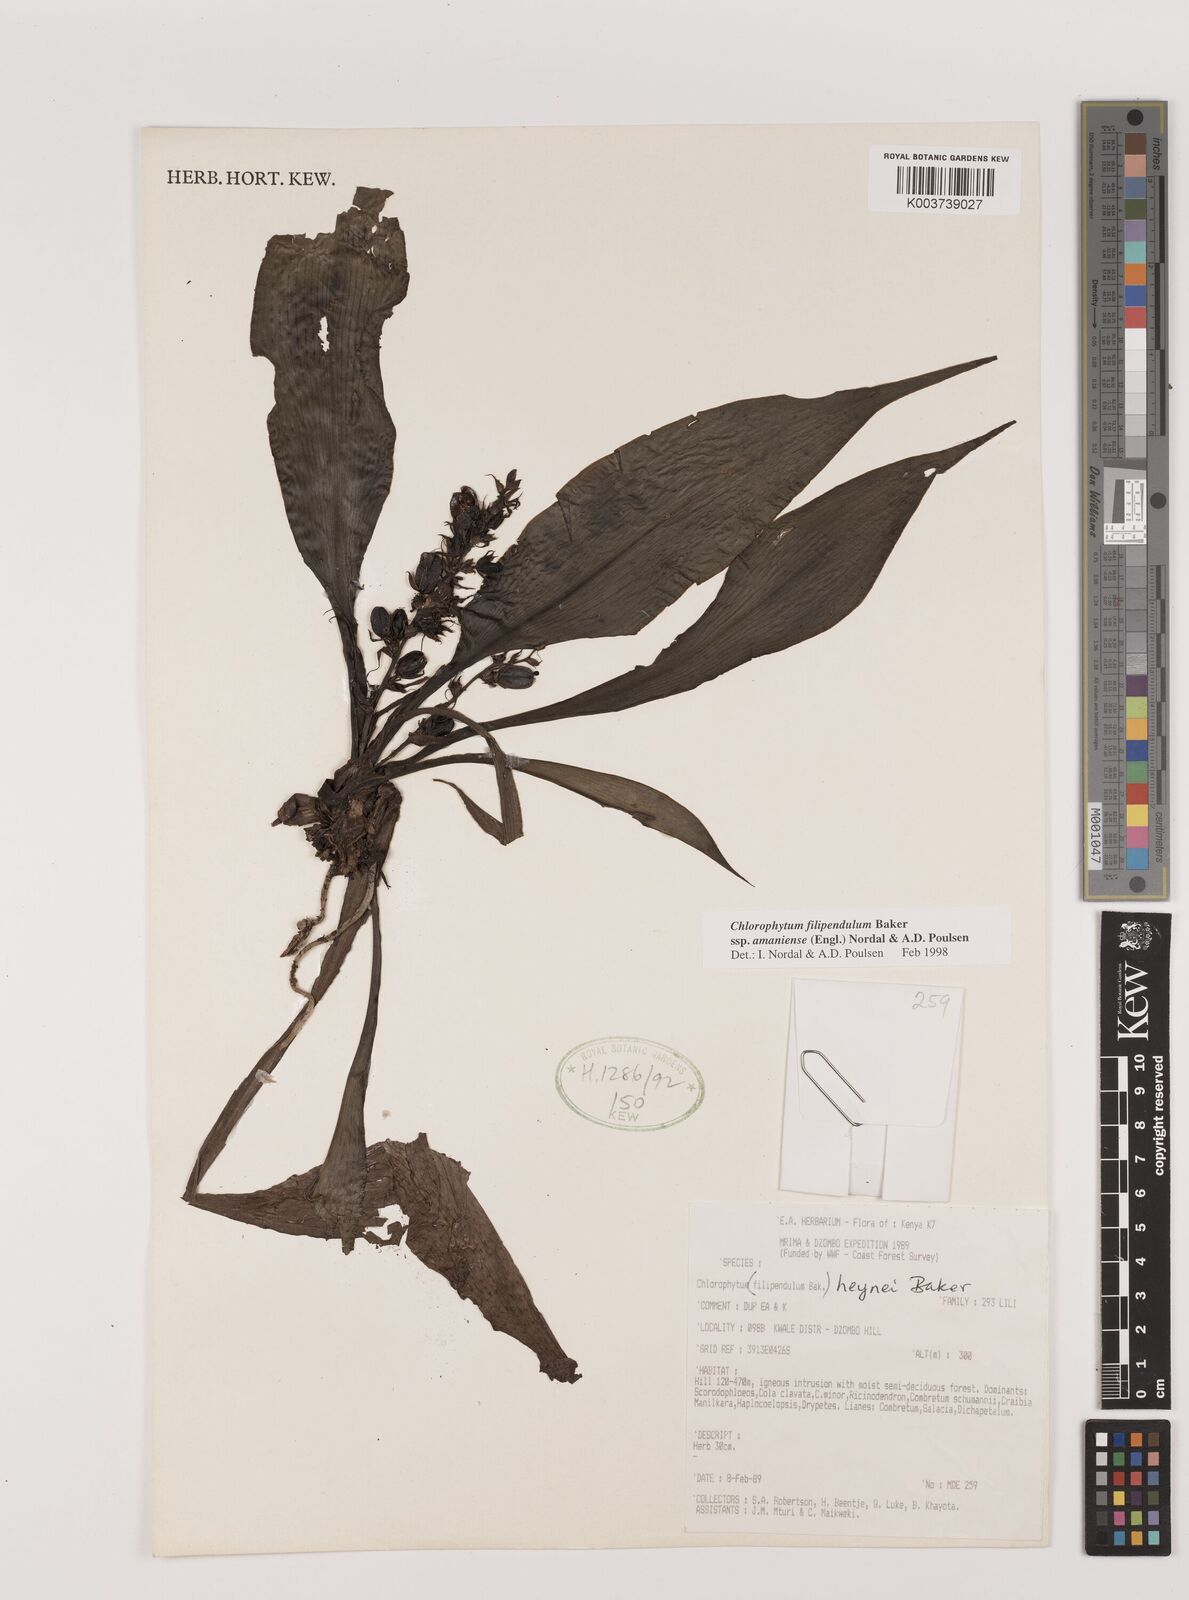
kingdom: Plantae
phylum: Tracheophyta
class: Liliopsida
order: Asparagales
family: Asparagaceae
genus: Chlorophytum
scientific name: Chlorophytum filipendulum
